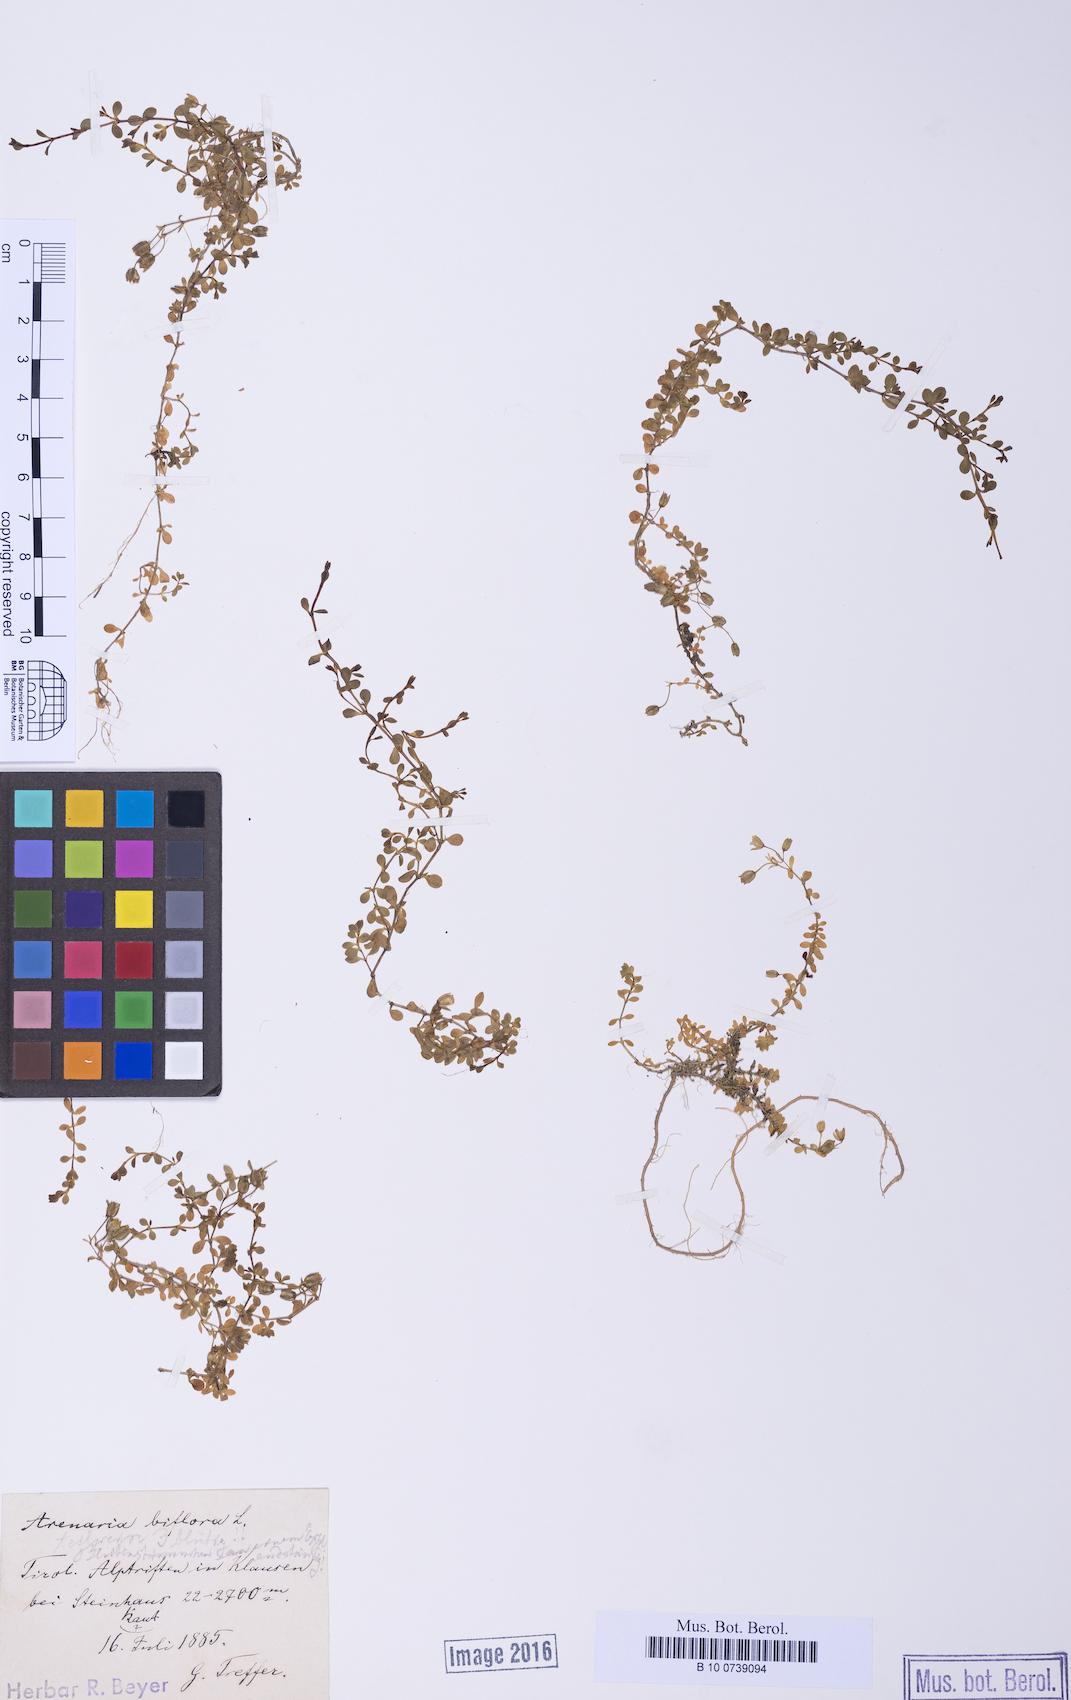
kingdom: Plantae
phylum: Tracheophyta
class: Magnoliopsida
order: Caryophyllales
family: Caryophyllaceae
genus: Arenaria
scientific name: Arenaria biflora
